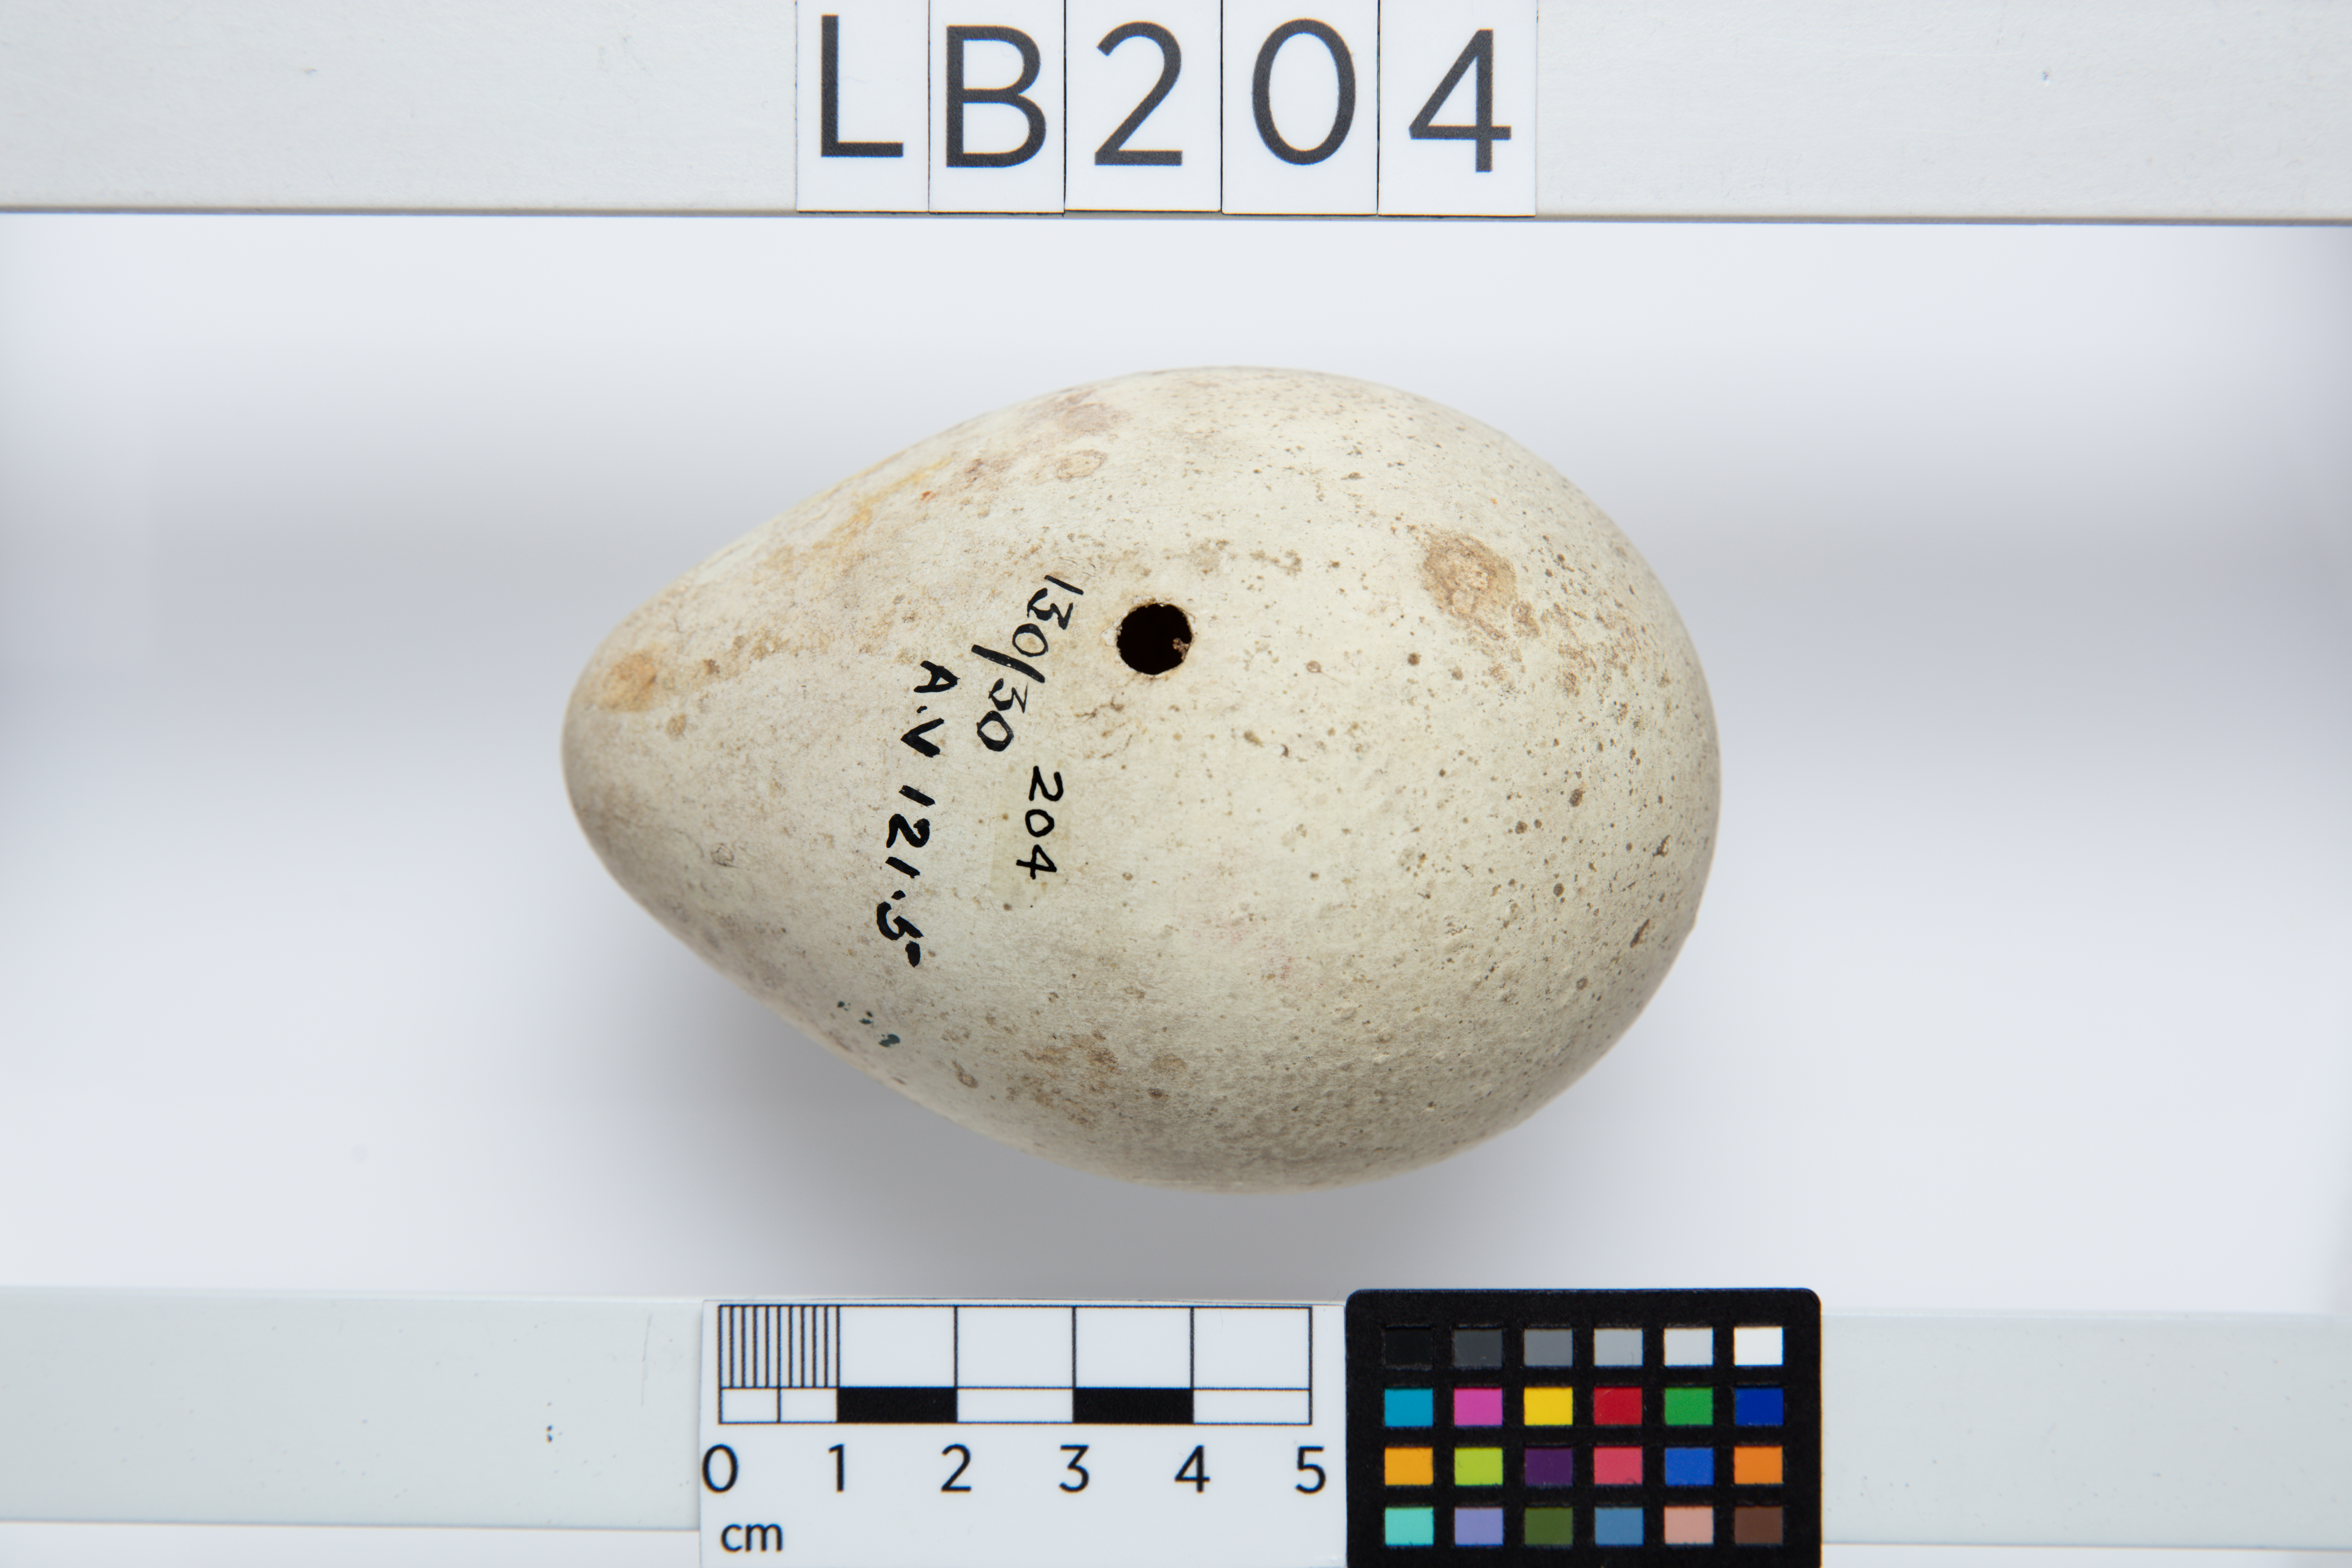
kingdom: Animalia
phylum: Chordata
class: Aves
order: Sphenisciformes
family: Spheniscidae
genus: Aptenodytes
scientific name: Aptenodytes patagonicus
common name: King penguin
